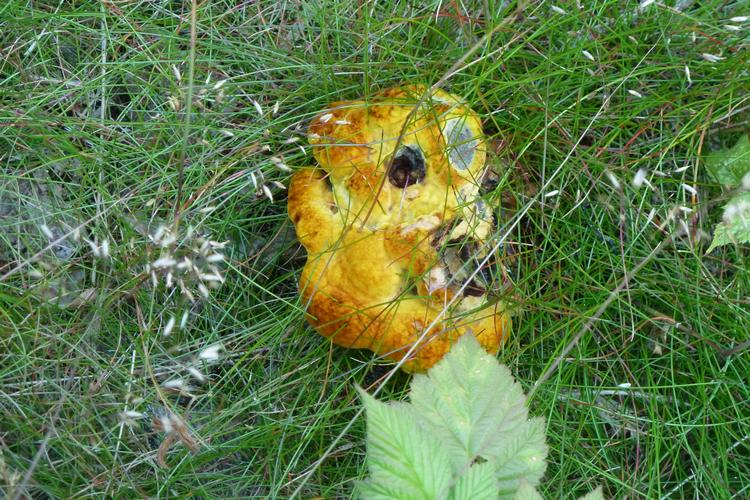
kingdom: Fungi
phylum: Basidiomycota
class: Agaricomycetes
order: Polyporales
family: Laetiporaceae
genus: Phaeolus
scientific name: Phaeolus schweinitzii
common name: brunporesvamp
